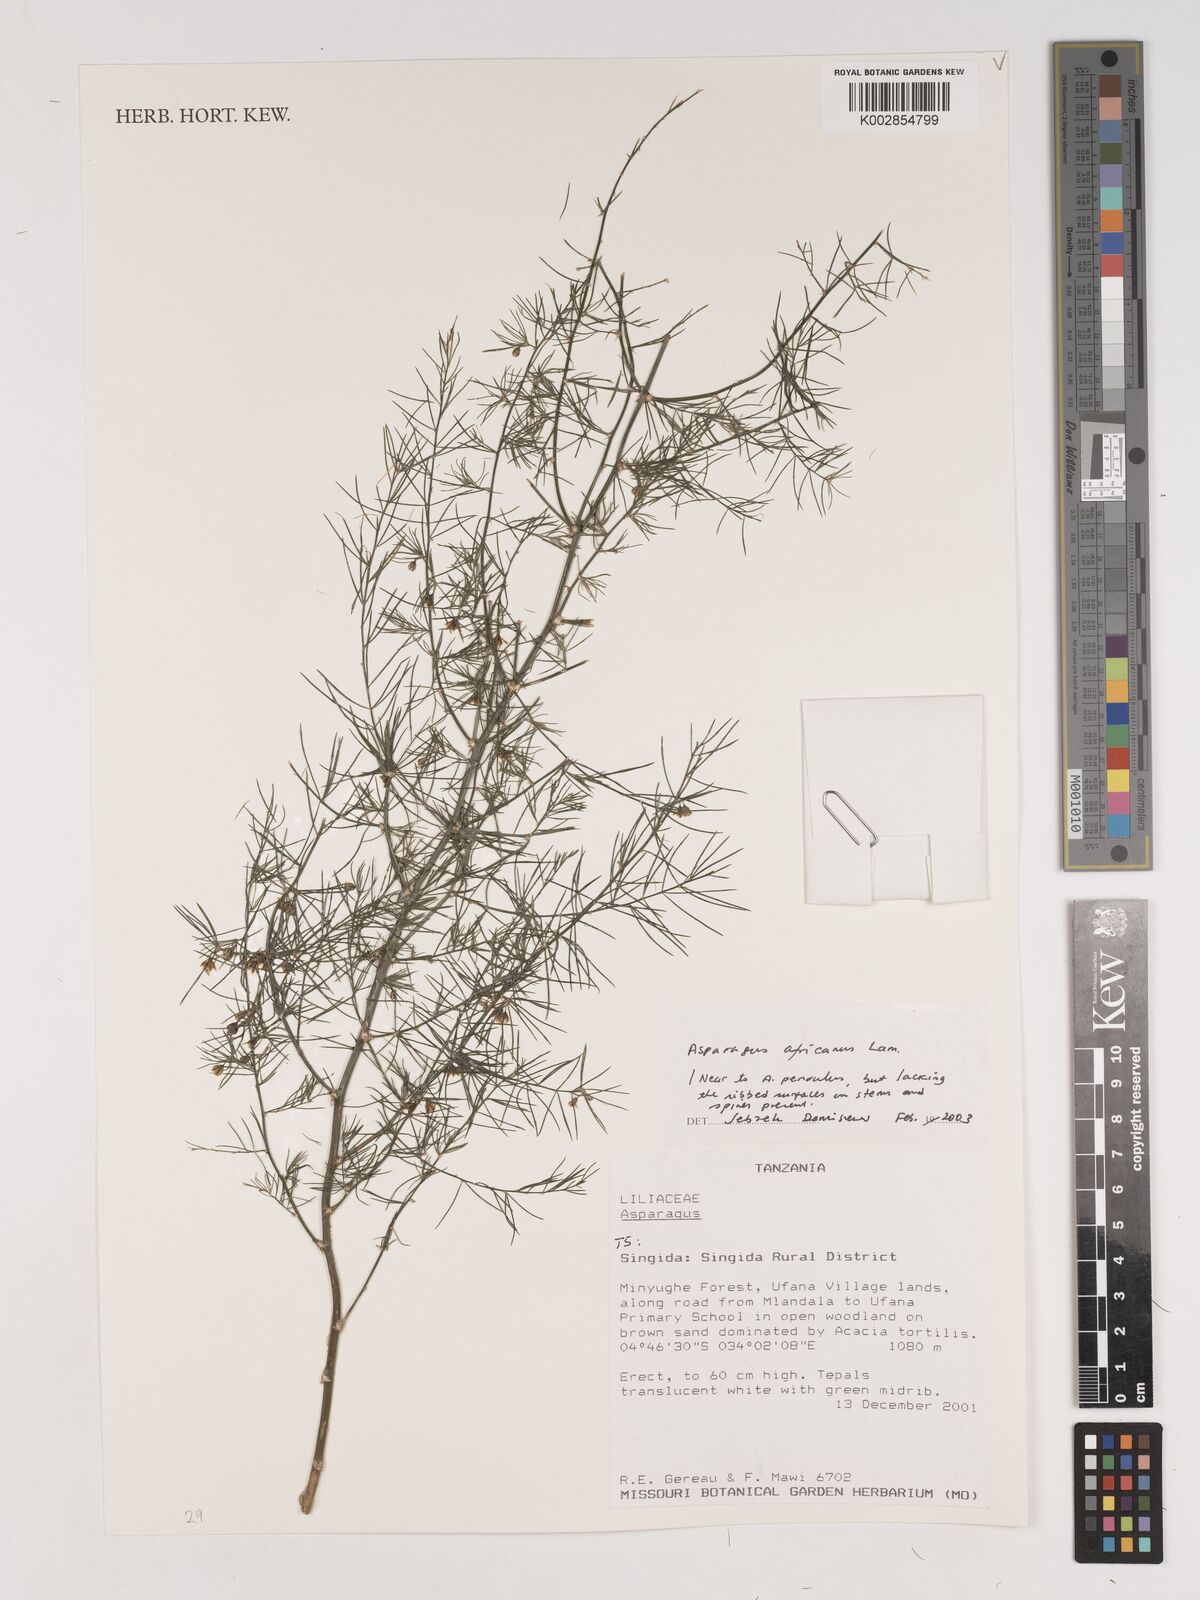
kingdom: Plantae
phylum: Tracheophyta
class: Liliopsida
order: Asparagales
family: Asparagaceae
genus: Asparagus
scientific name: Asparagus africanus
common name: Asparagus-fern
